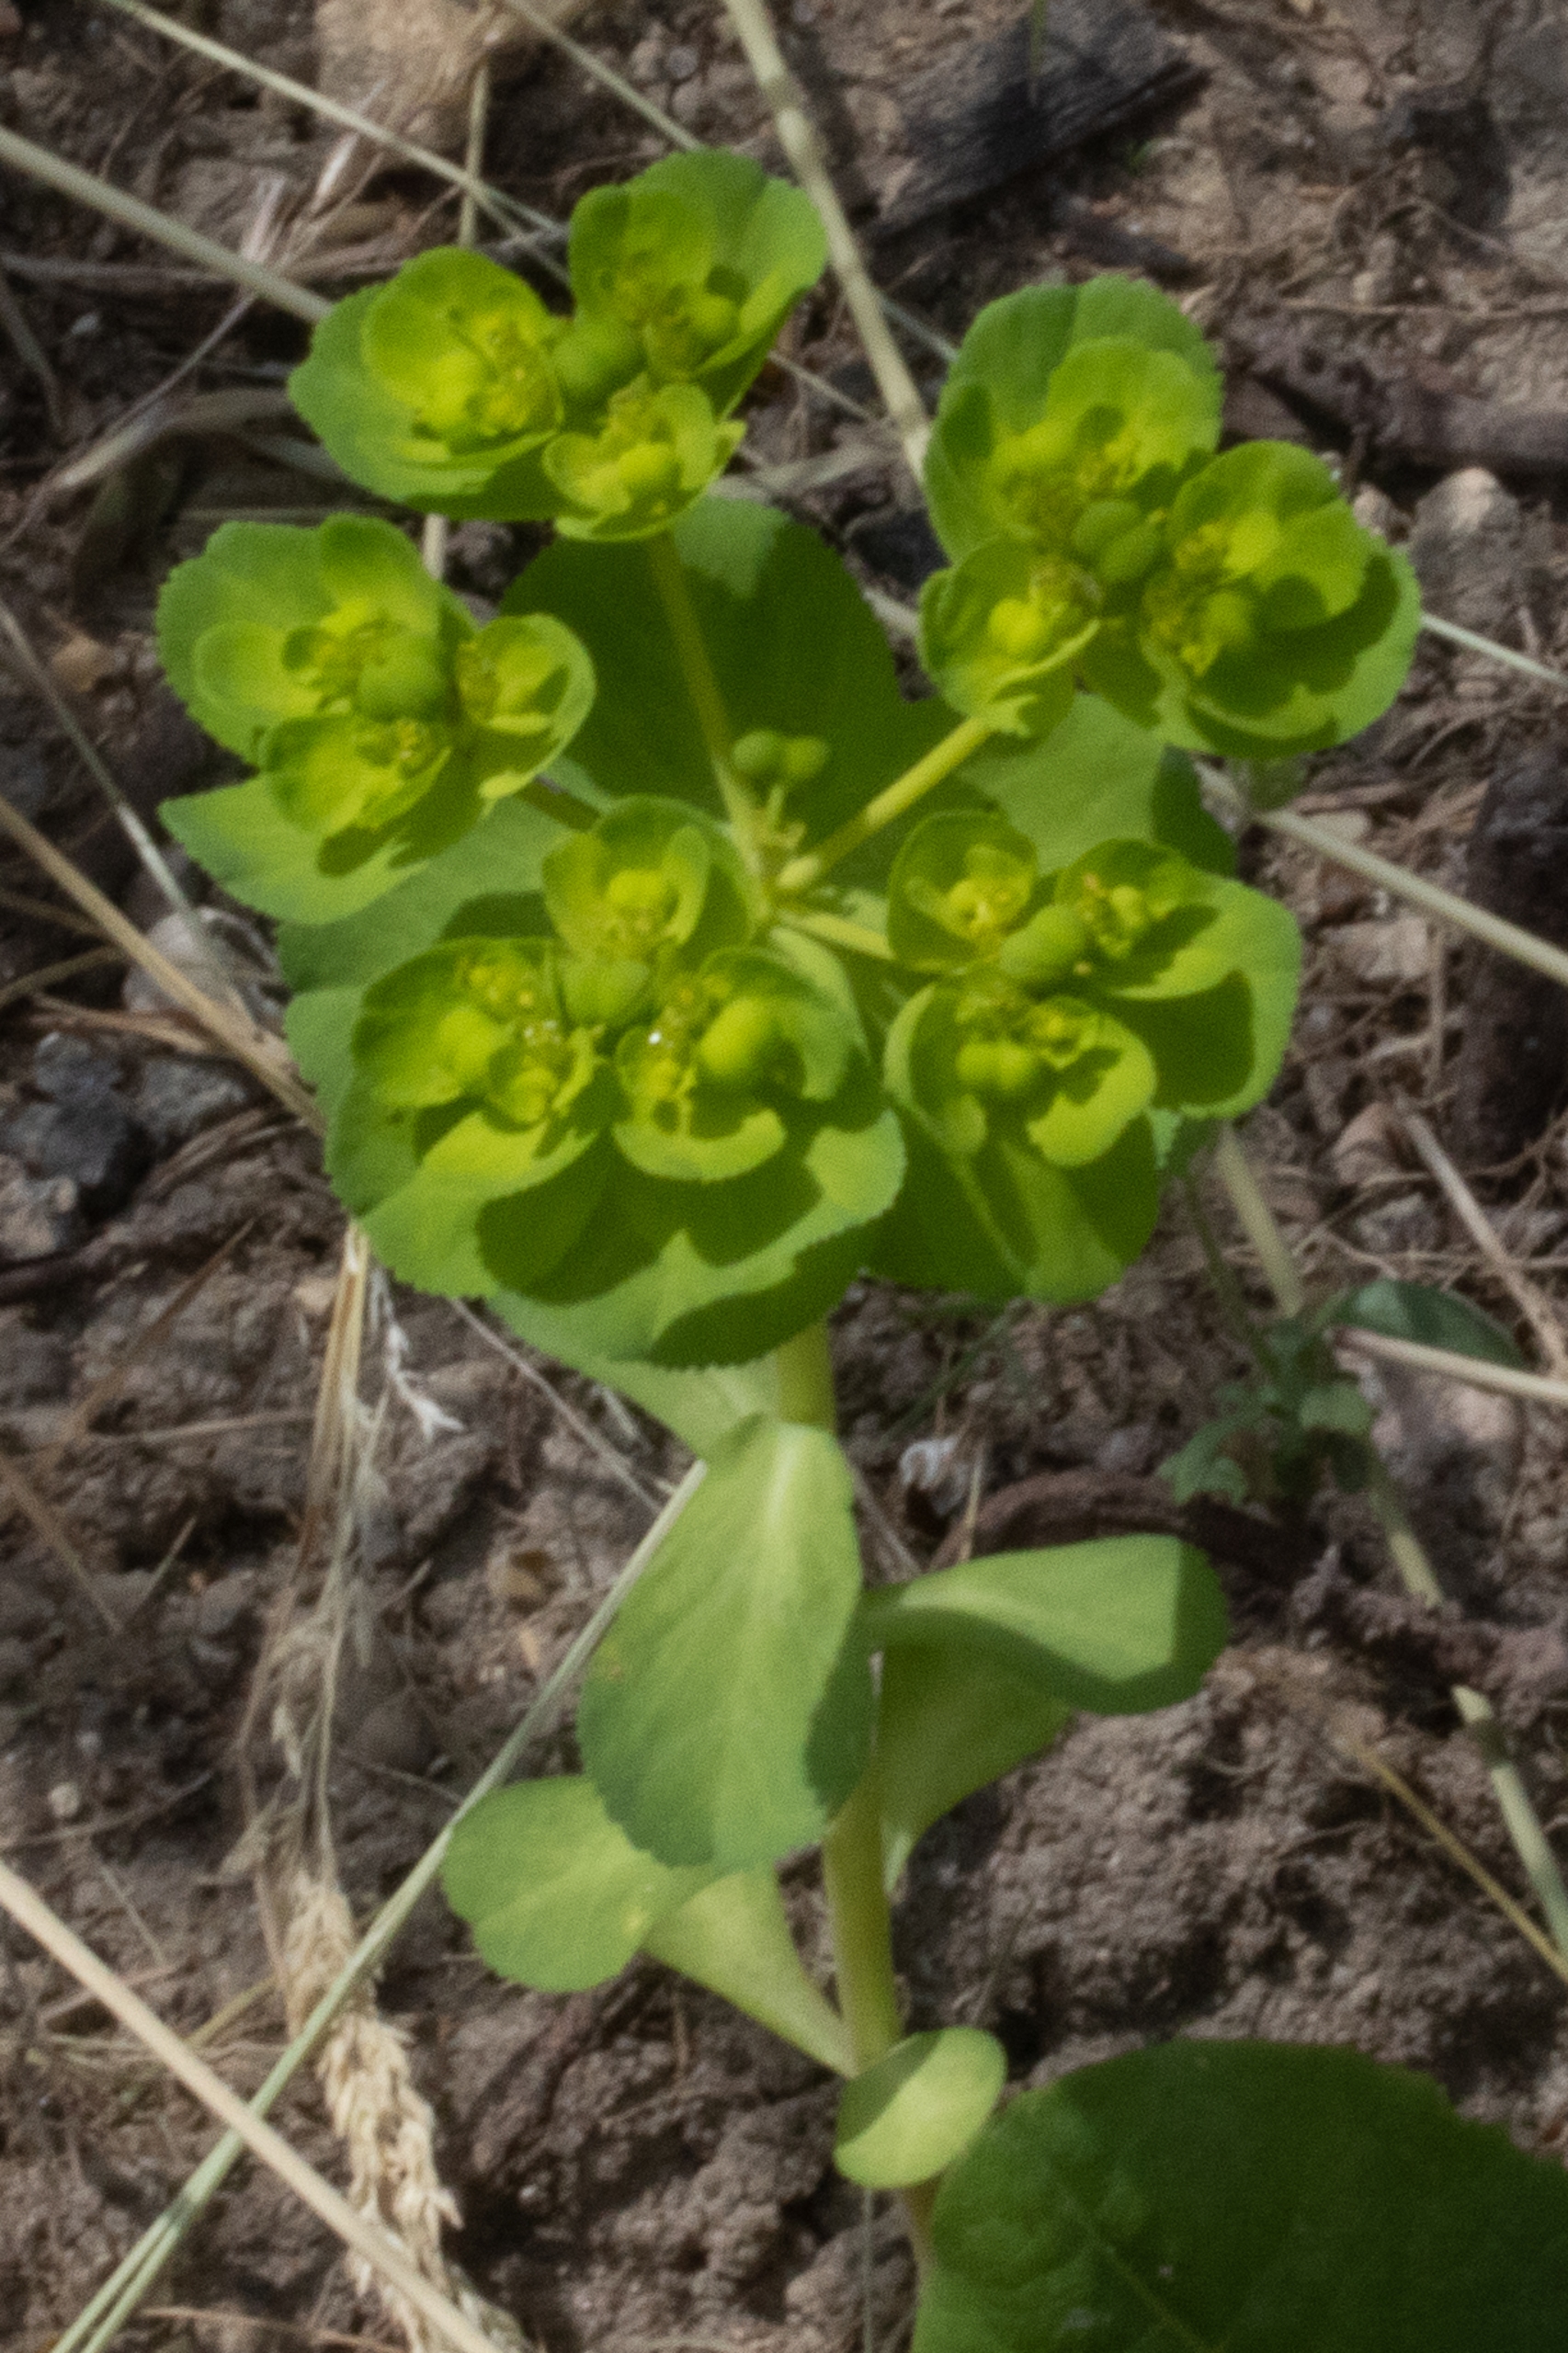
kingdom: Plantae
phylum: Tracheophyta
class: Magnoliopsida
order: Malpighiales
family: Euphorbiaceae
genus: Euphorbia
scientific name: Euphorbia helioscopia
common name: Skærm-vortemælk
